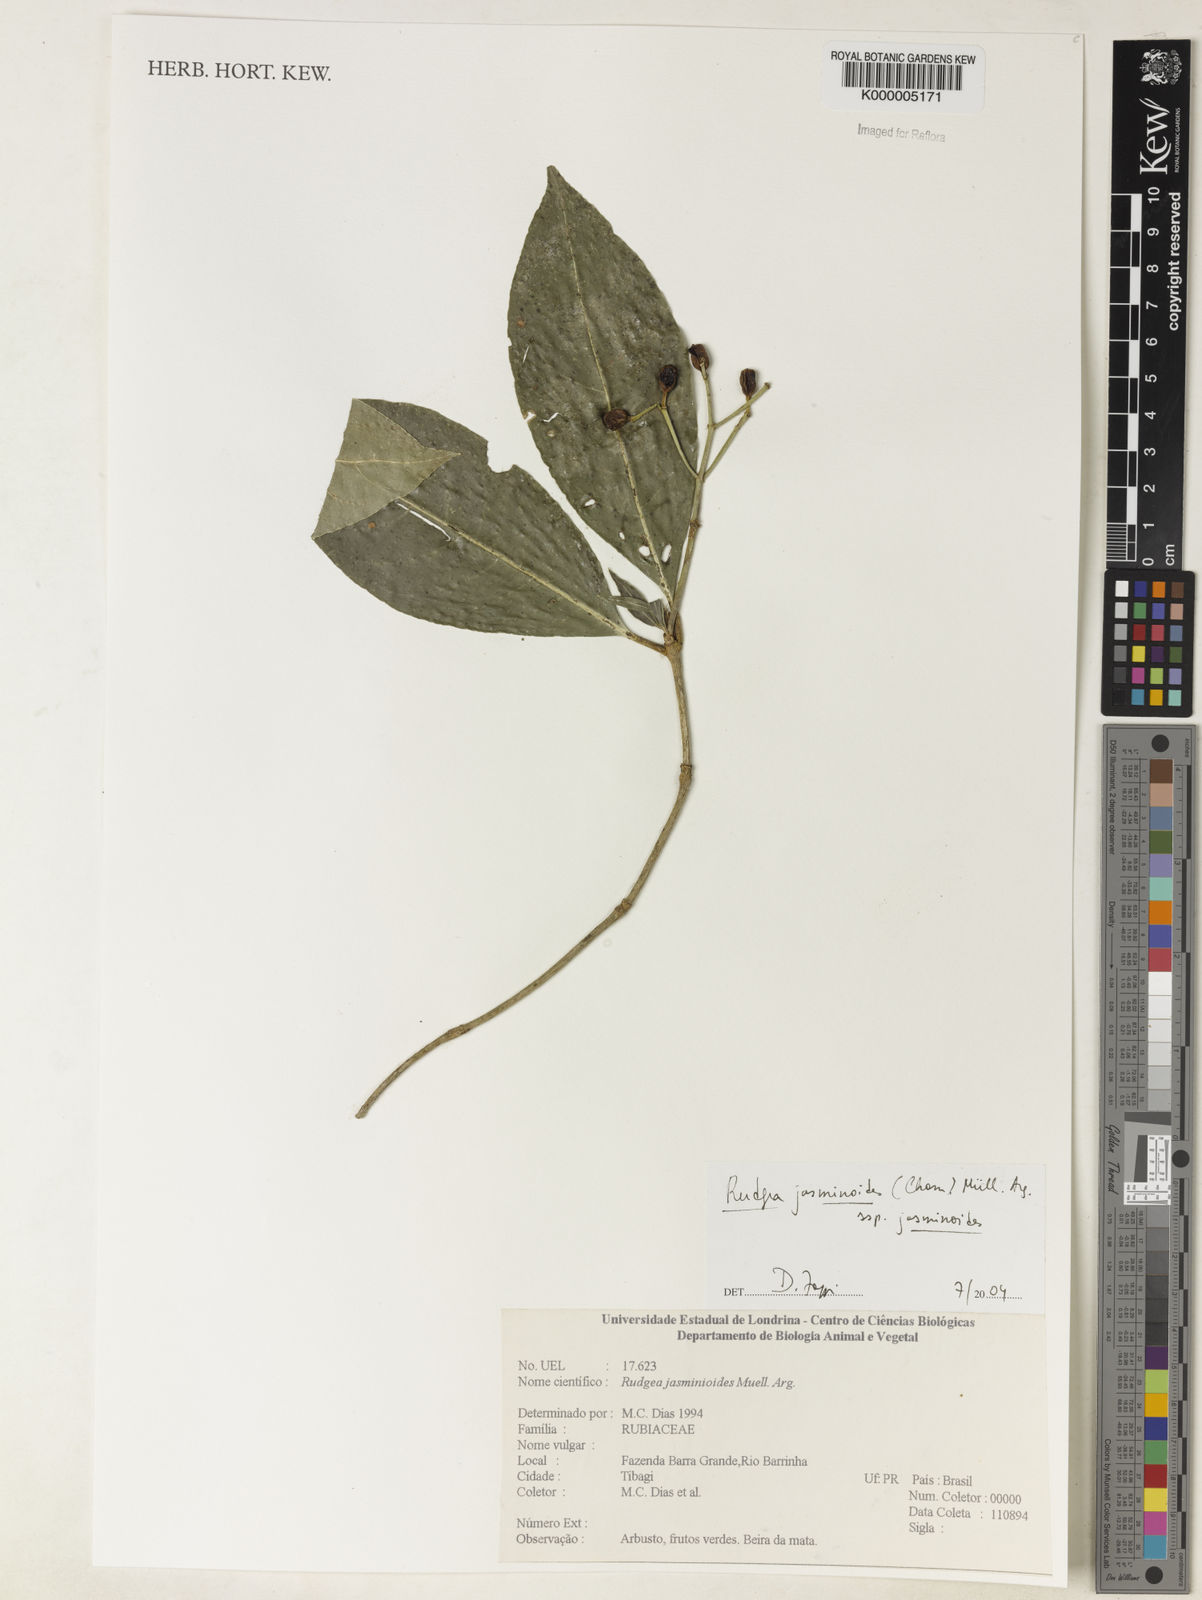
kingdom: Plantae
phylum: Tracheophyta
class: Magnoliopsida
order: Gentianales
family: Rubiaceae
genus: Rudgea
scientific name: Rudgea jasminoides
